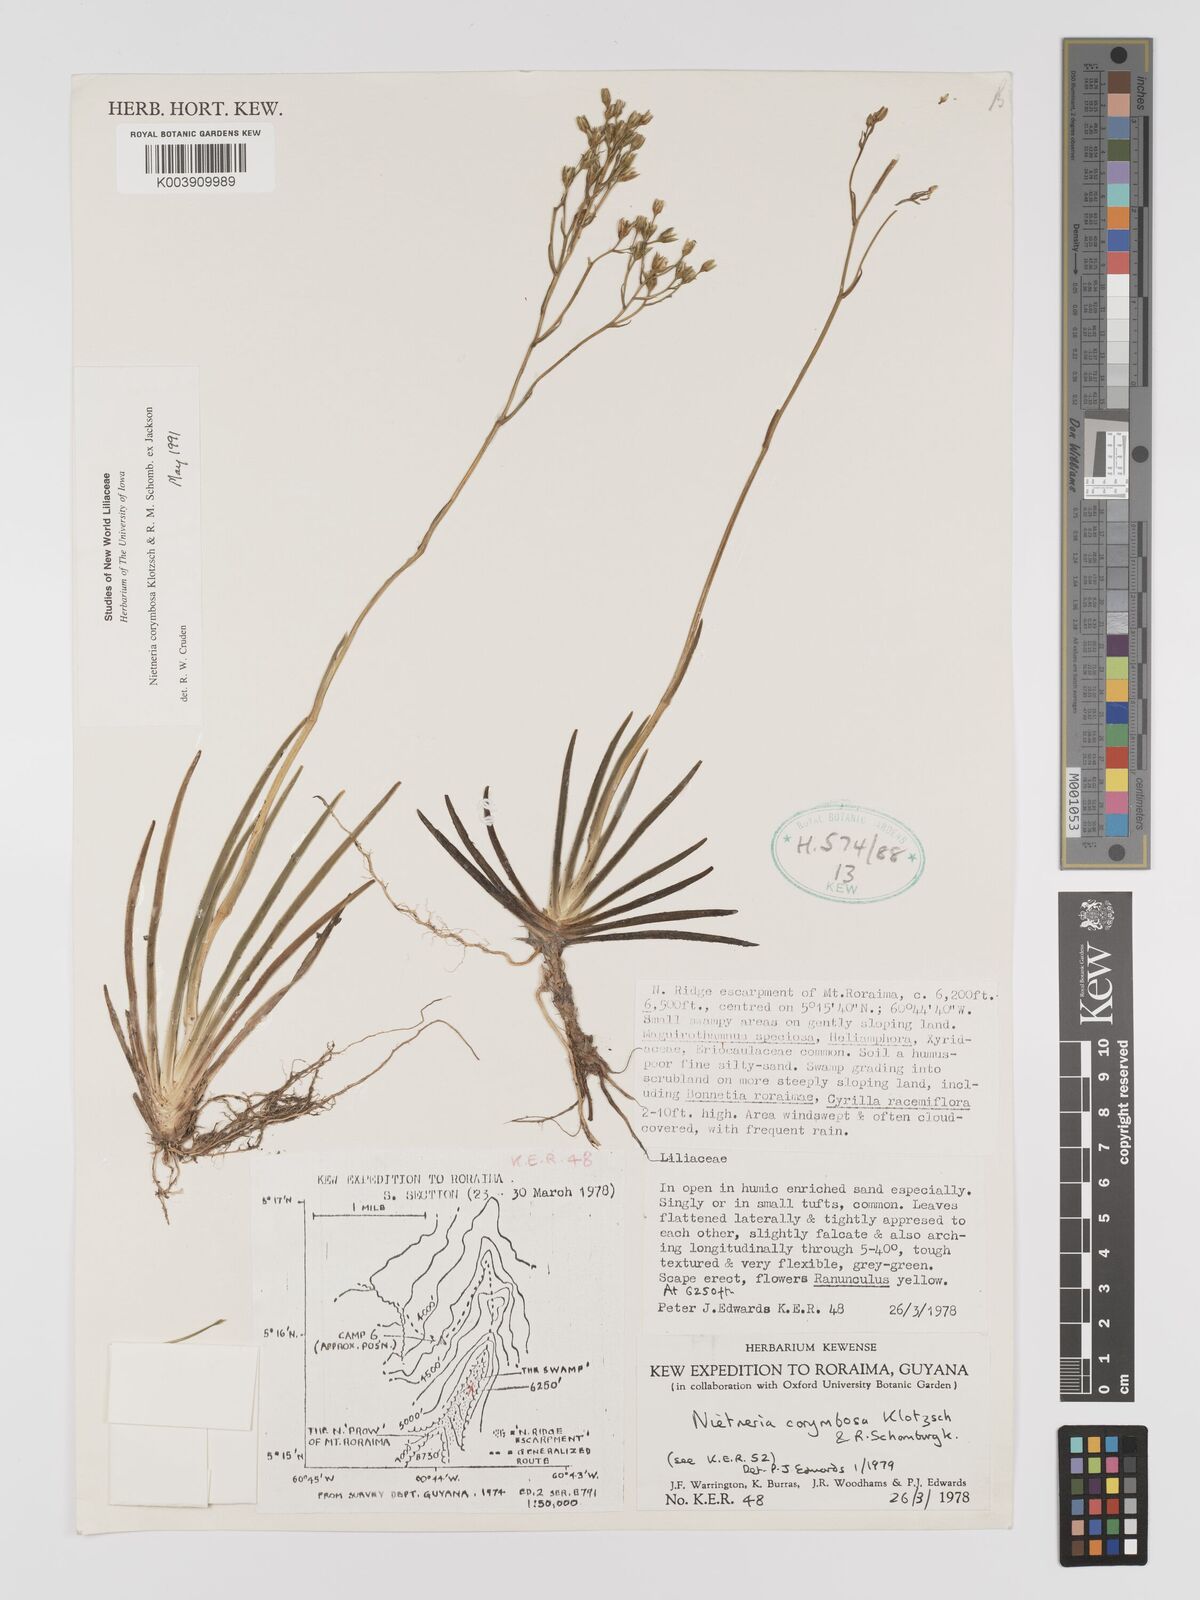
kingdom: Plantae
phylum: Tracheophyta
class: Liliopsida
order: Dioscoreales
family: Nartheciaceae
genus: Nietneria
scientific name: Nietneria corymbosa
